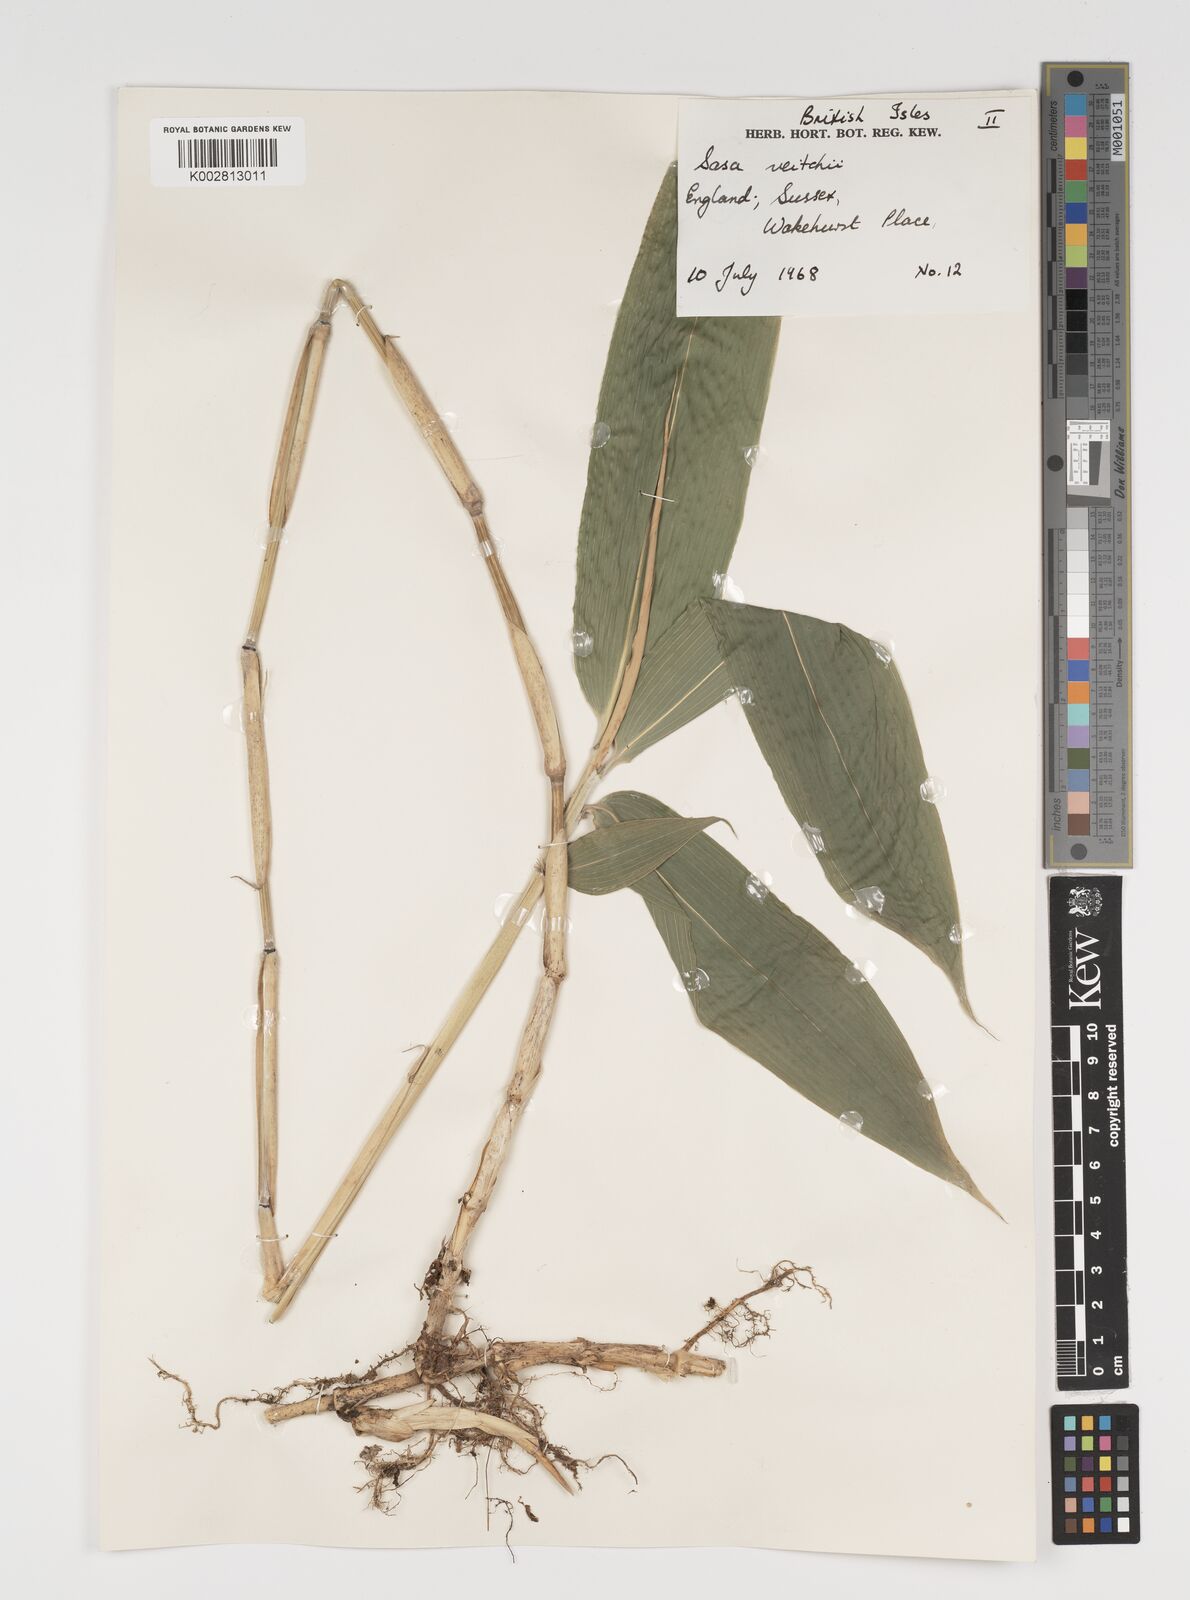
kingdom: Plantae
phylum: Tracheophyta
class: Liliopsida
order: Poales
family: Poaceae
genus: Sasa
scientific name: Sasa veitchii
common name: Veitch's bamboo
